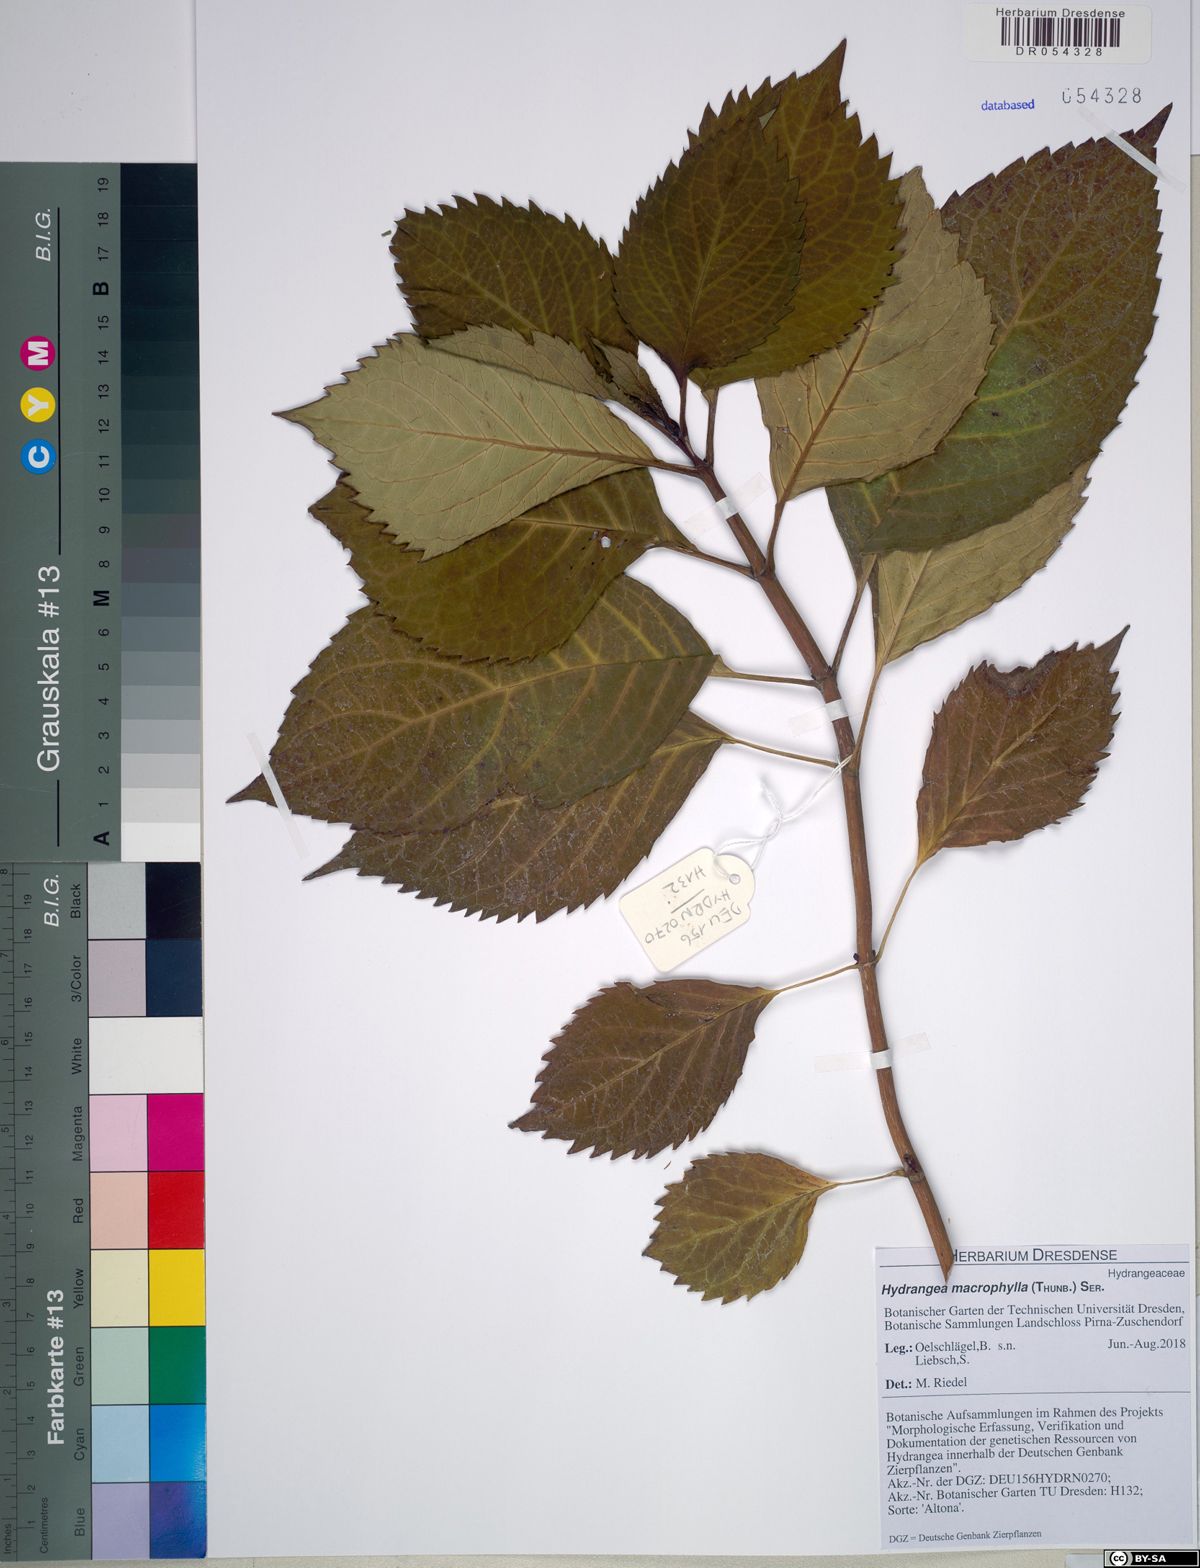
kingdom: Plantae
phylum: Tracheophyta
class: Magnoliopsida
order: Cornales
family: Hydrangeaceae
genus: Hydrangea
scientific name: Hydrangea macrophylla
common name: Hydrangea
